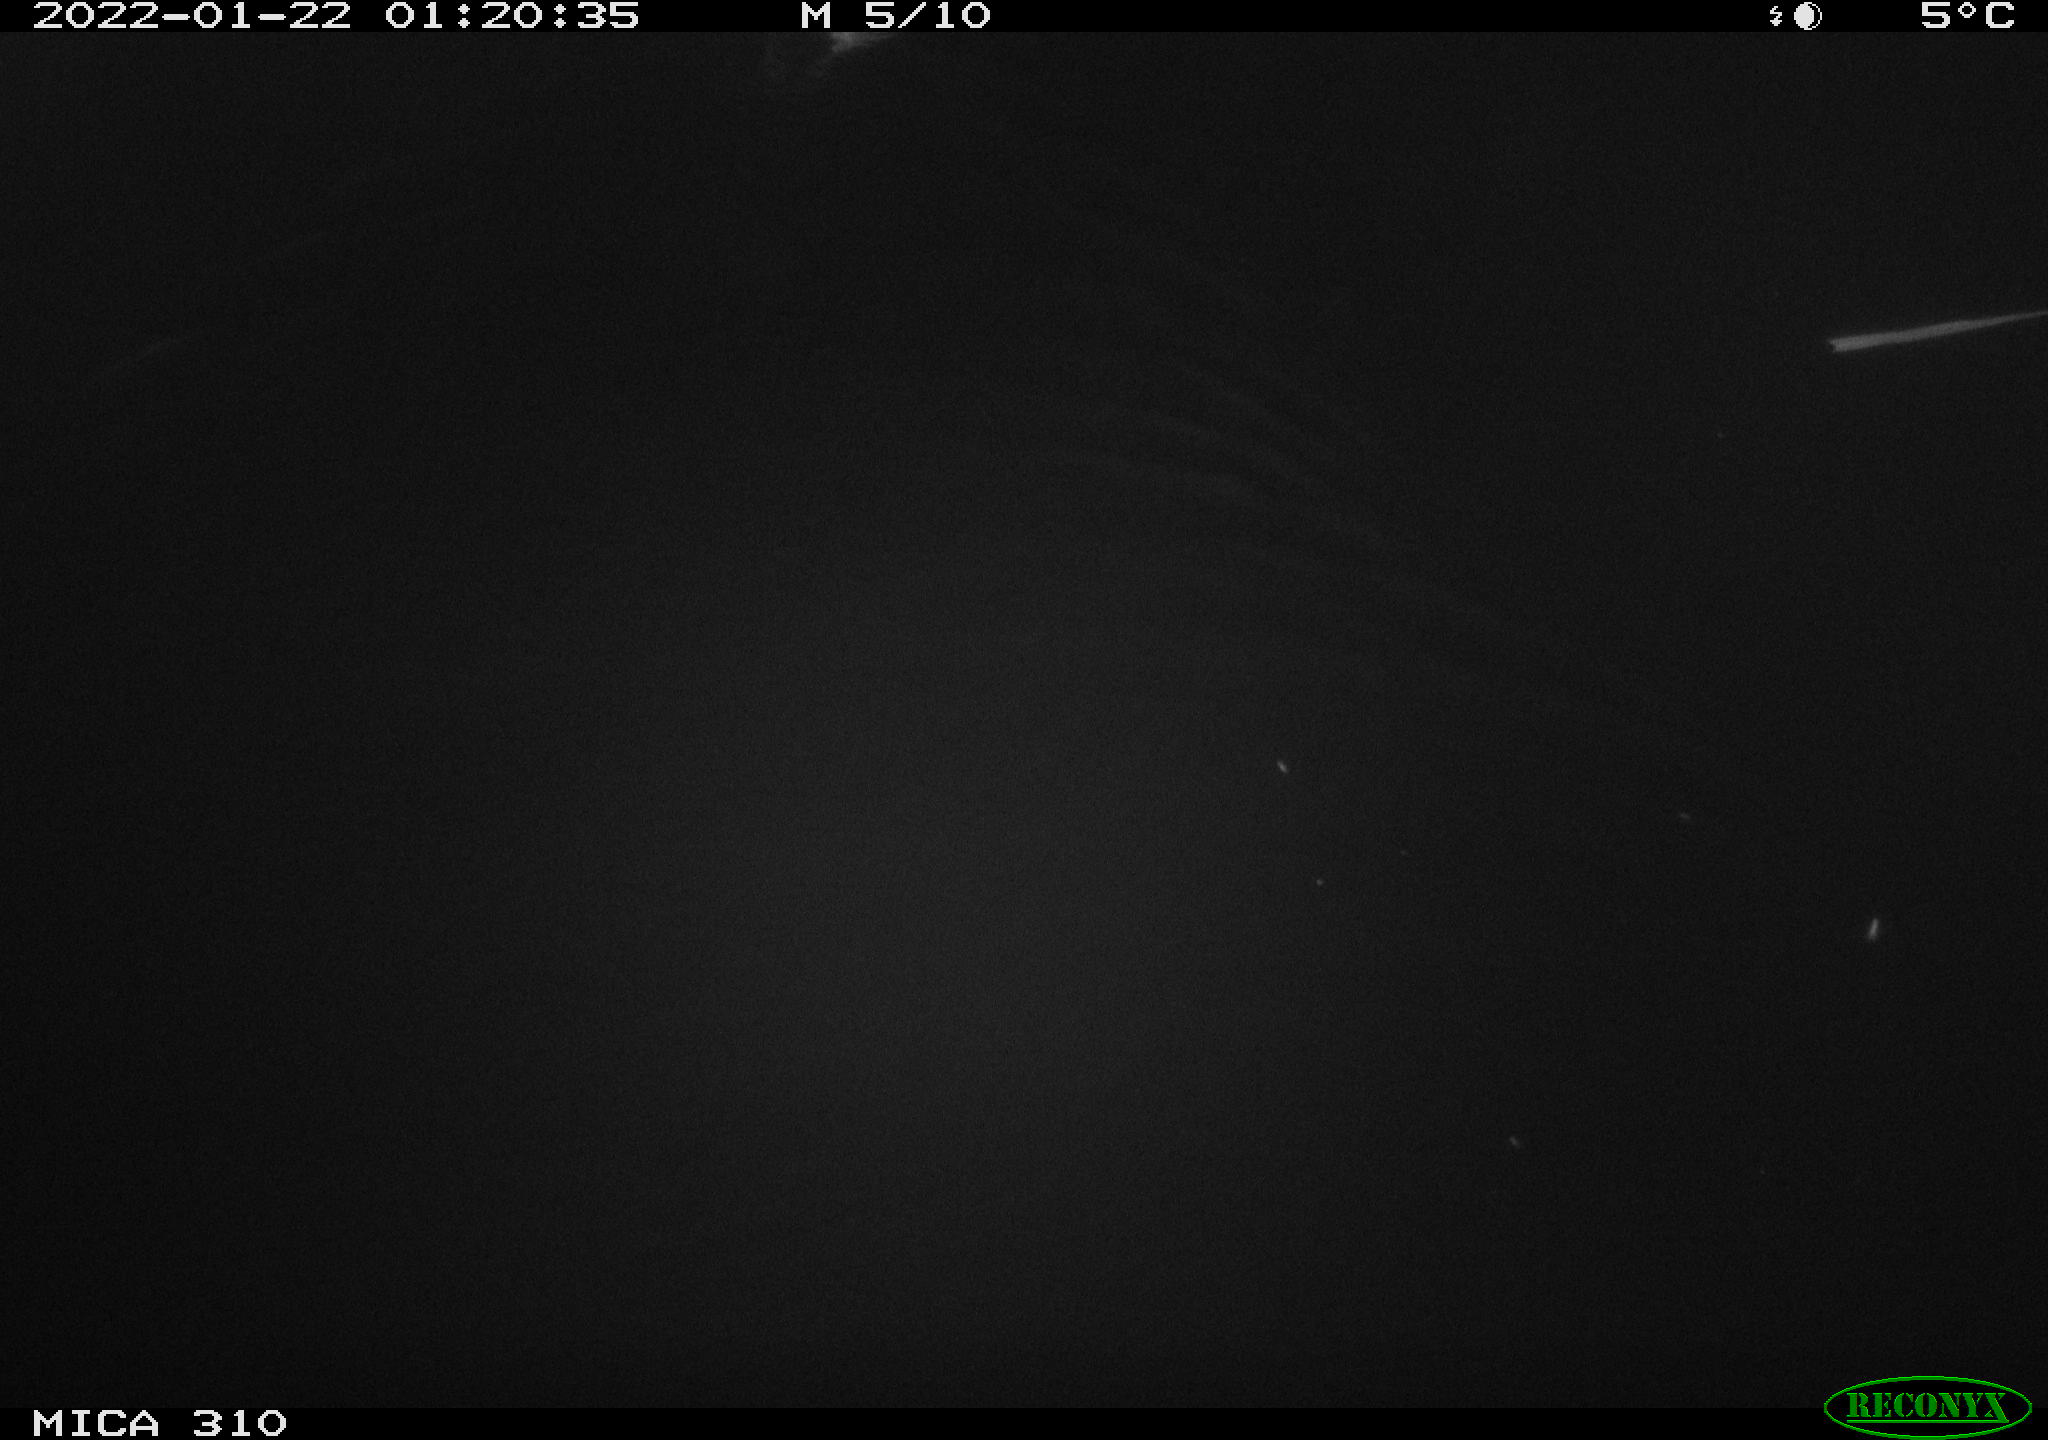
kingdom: Animalia
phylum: Chordata
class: Aves
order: Anseriformes
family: Anatidae
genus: Anas
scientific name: Anas
